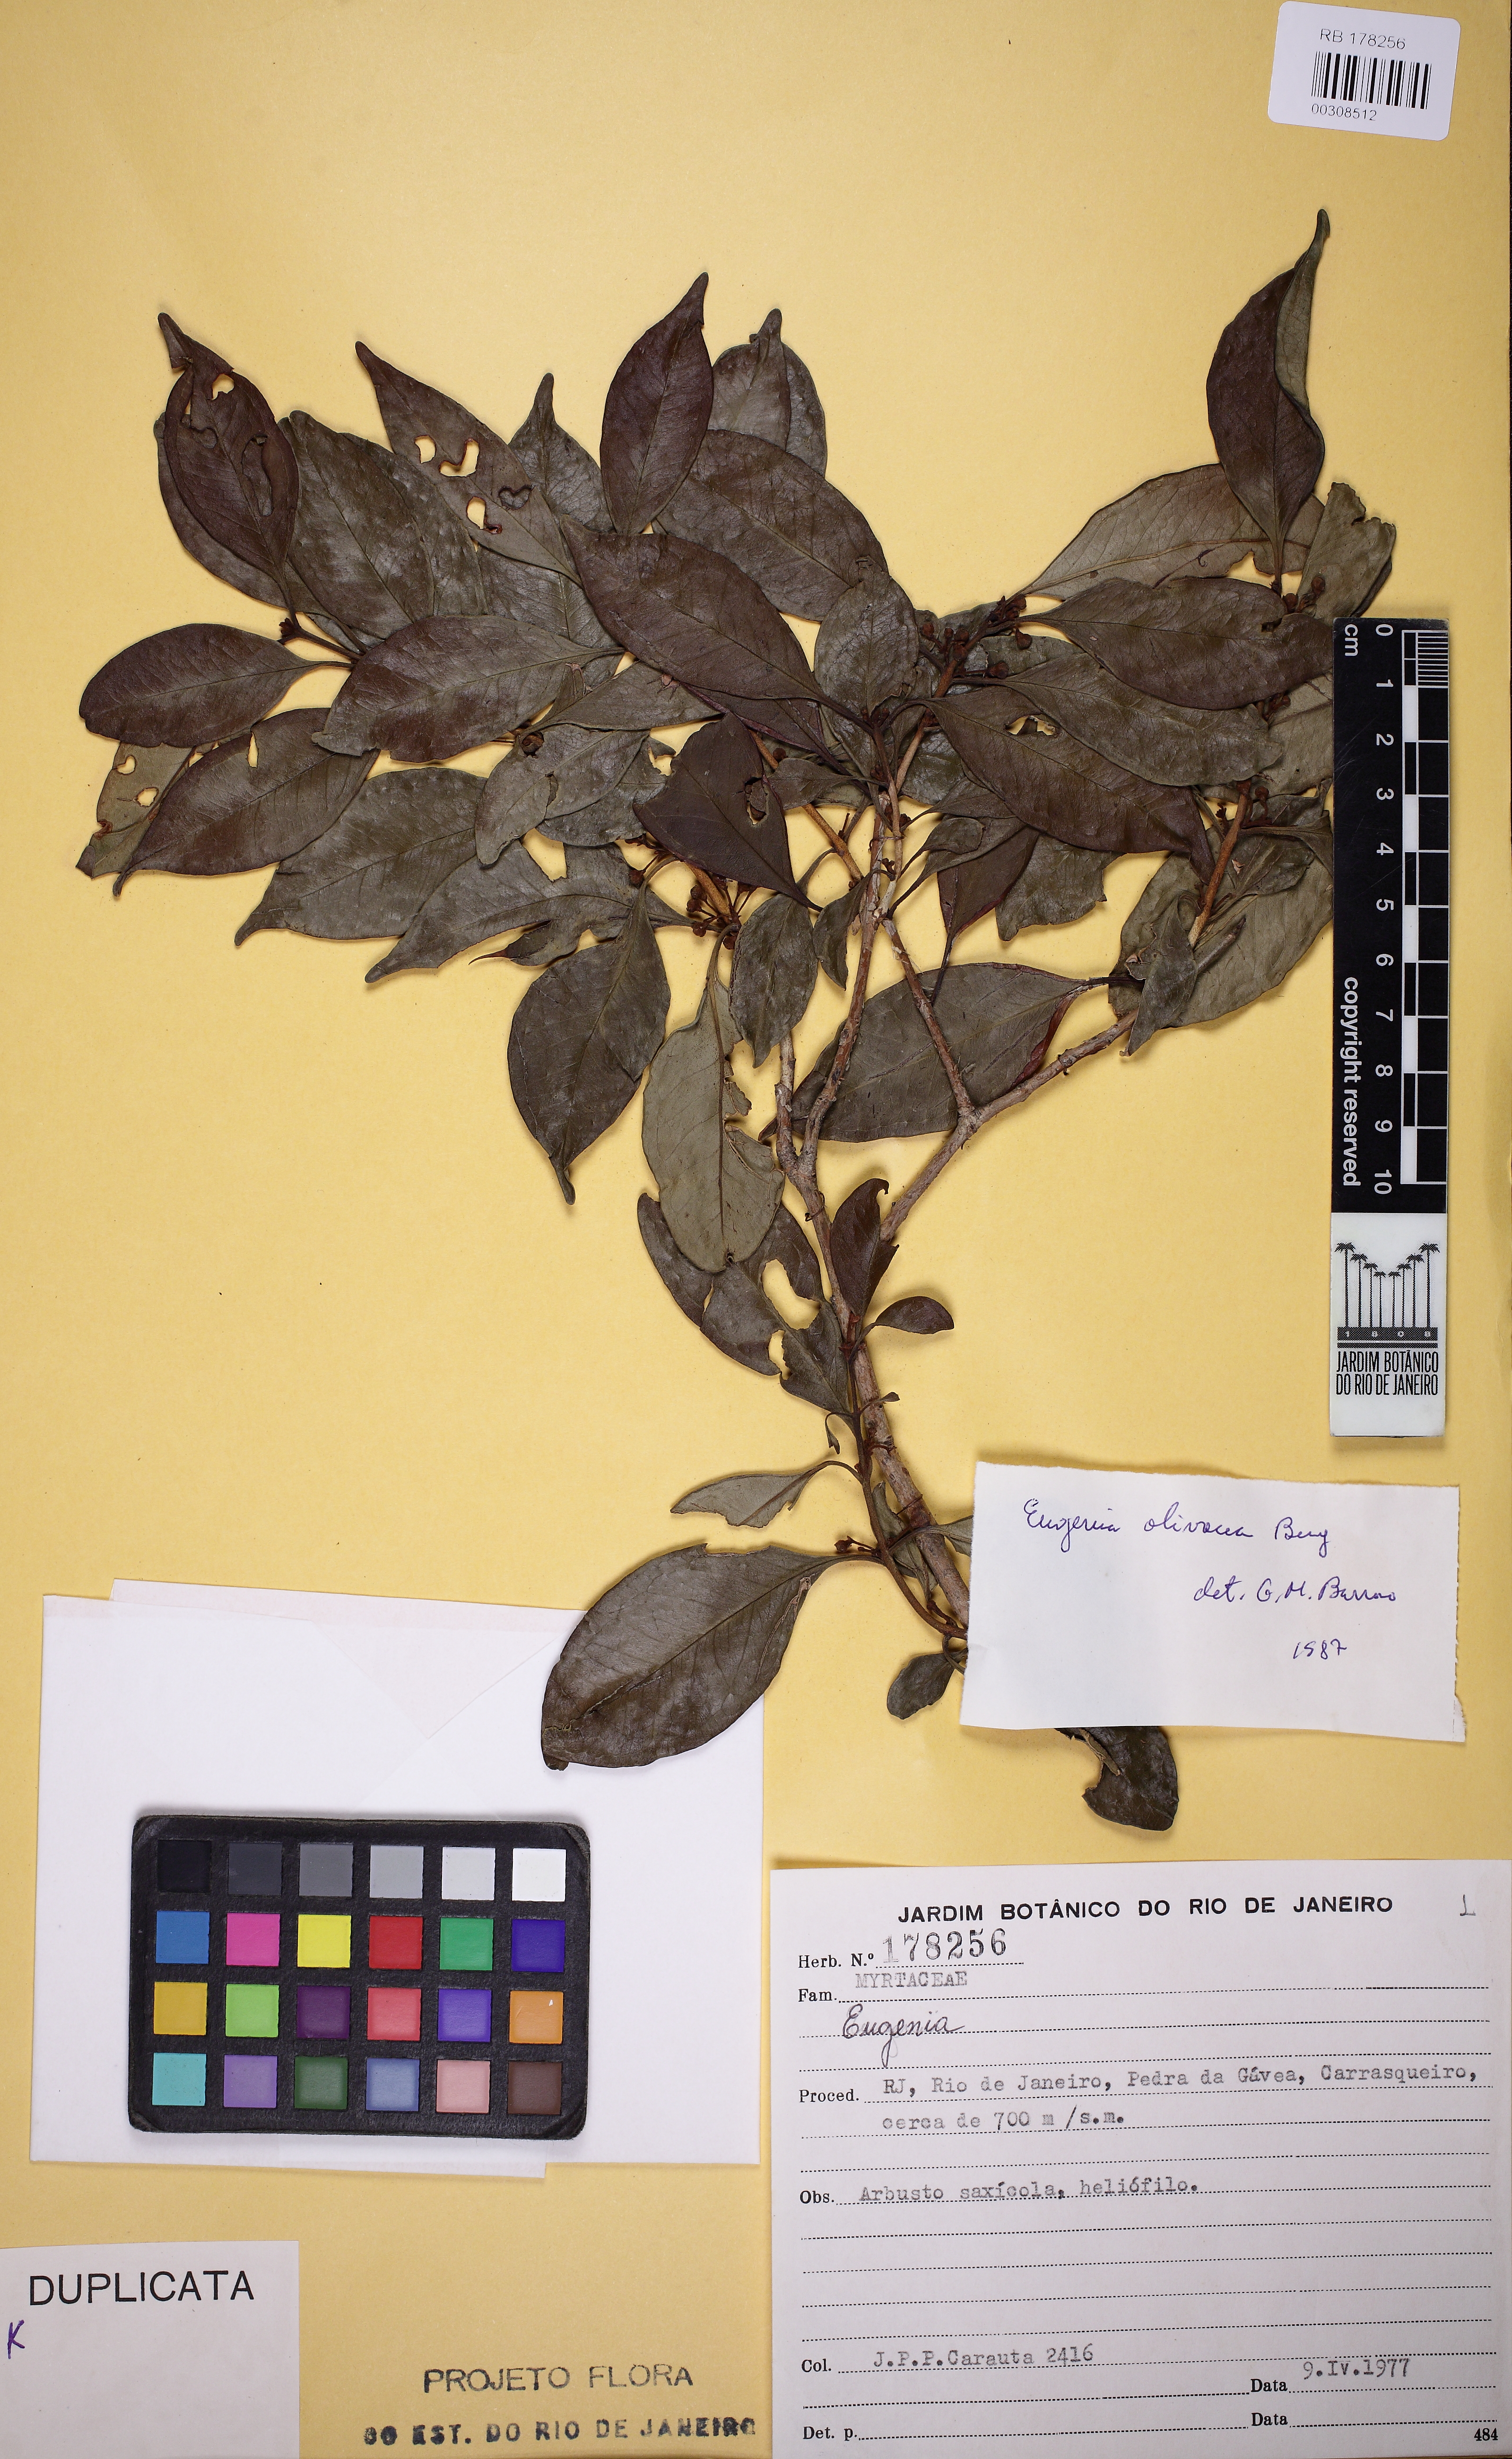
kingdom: Plantae
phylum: Tracheophyta
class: Magnoliopsida
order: Myrtales
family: Myrtaceae
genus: Eugenia
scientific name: Eugenia pruniformis
